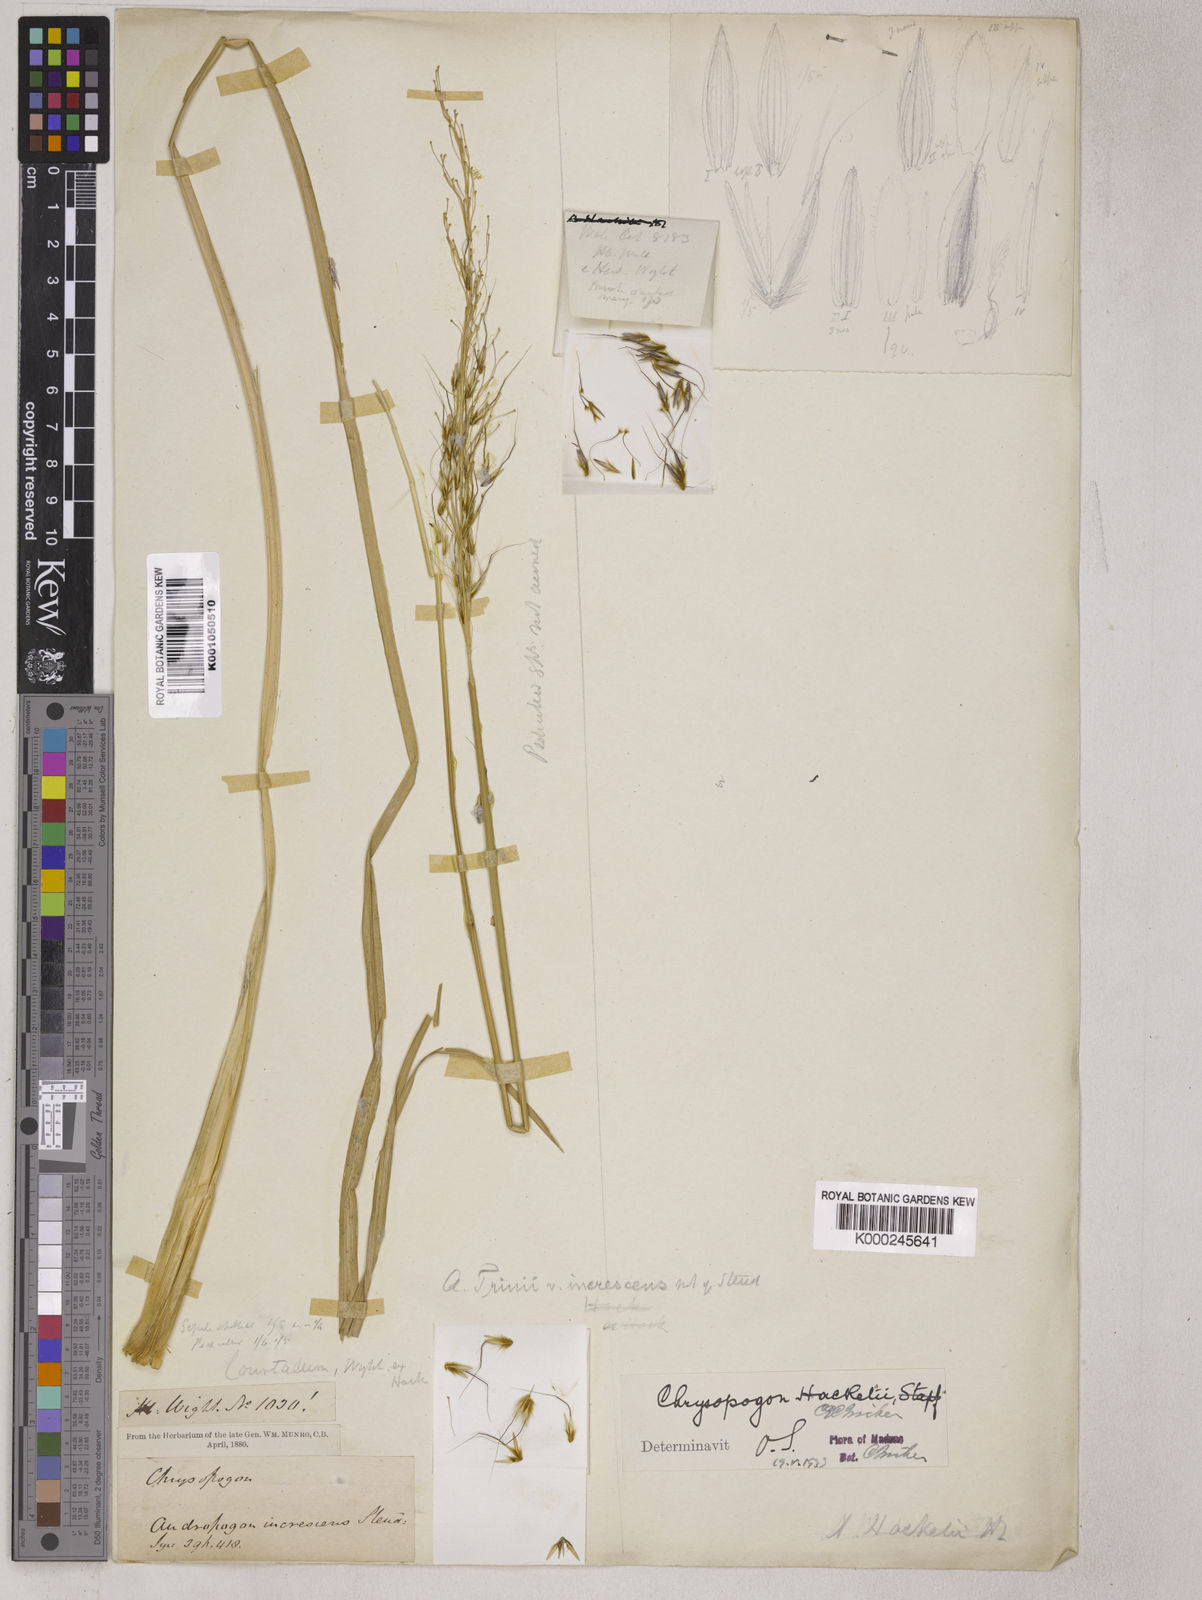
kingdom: Plantae
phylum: Tracheophyta
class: Liliopsida
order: Poales
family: Poaceae
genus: Chrysopogon
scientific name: Chrysopogon hackelii
